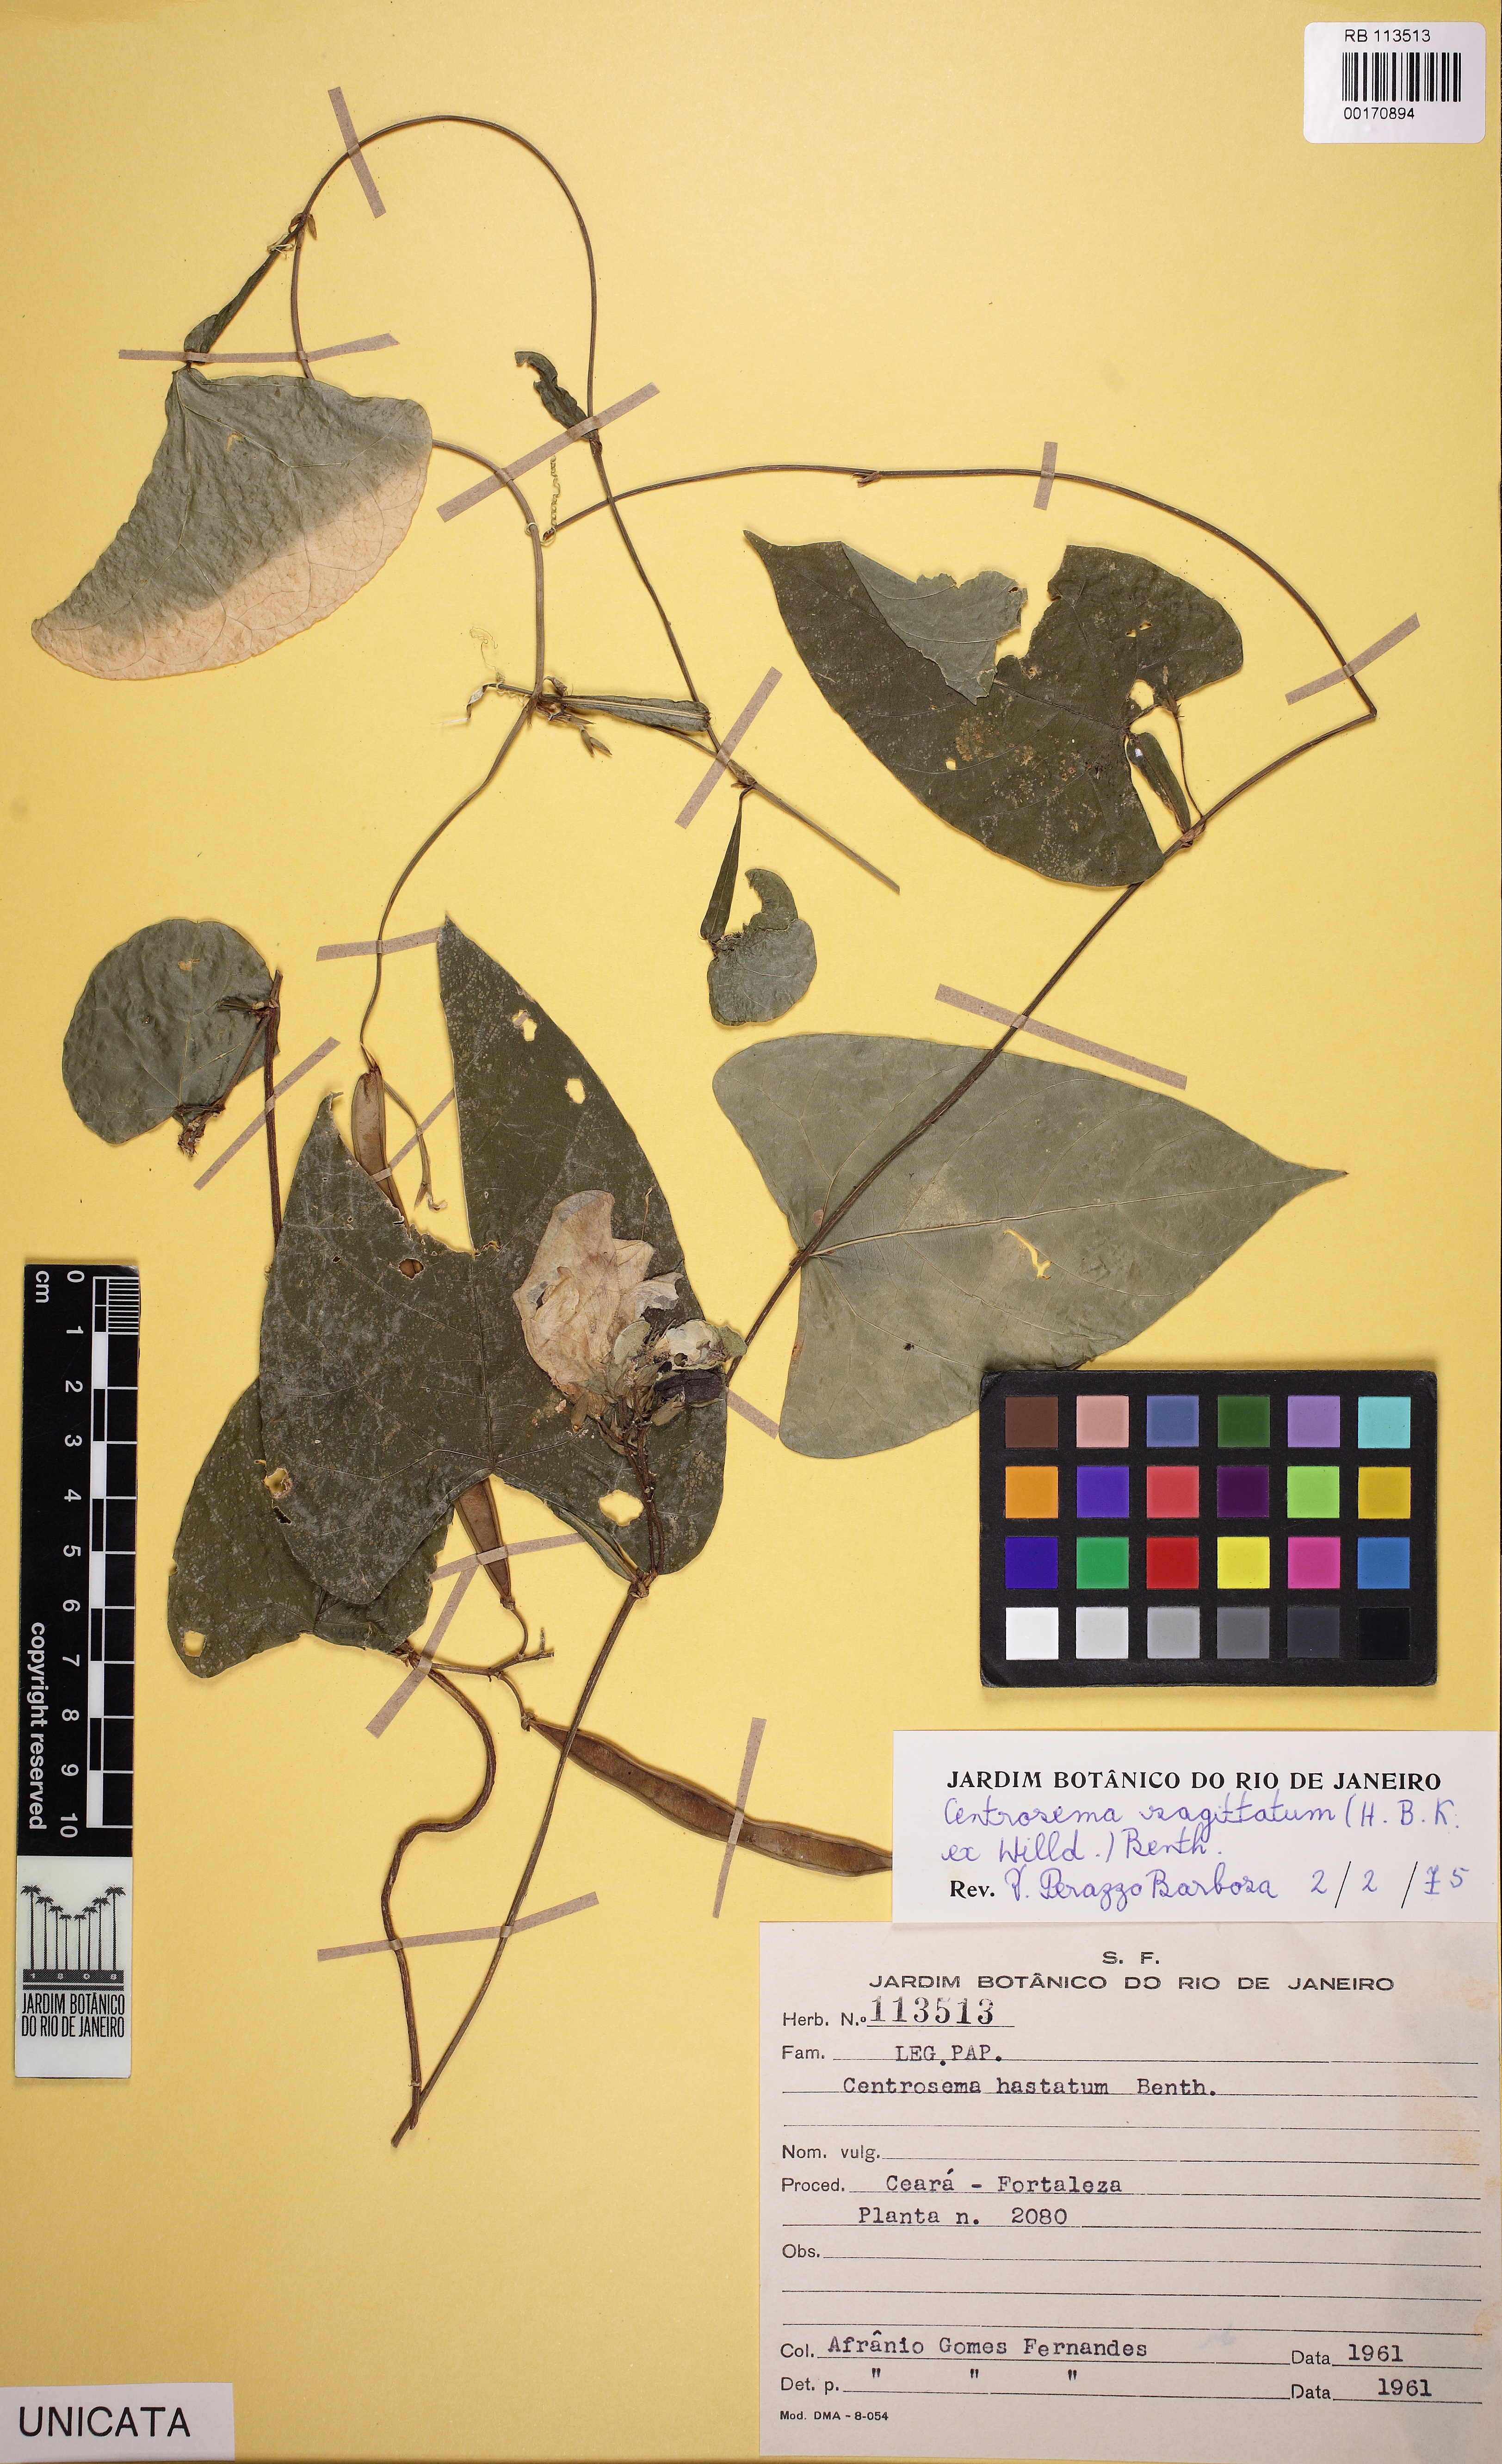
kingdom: Plantae
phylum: Tracheophyta
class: Magnoliopsida
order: Fabales
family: Fabaceae
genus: Centrosema
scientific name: Centrosema sagittatum
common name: Arrowleaf butterfly pea
